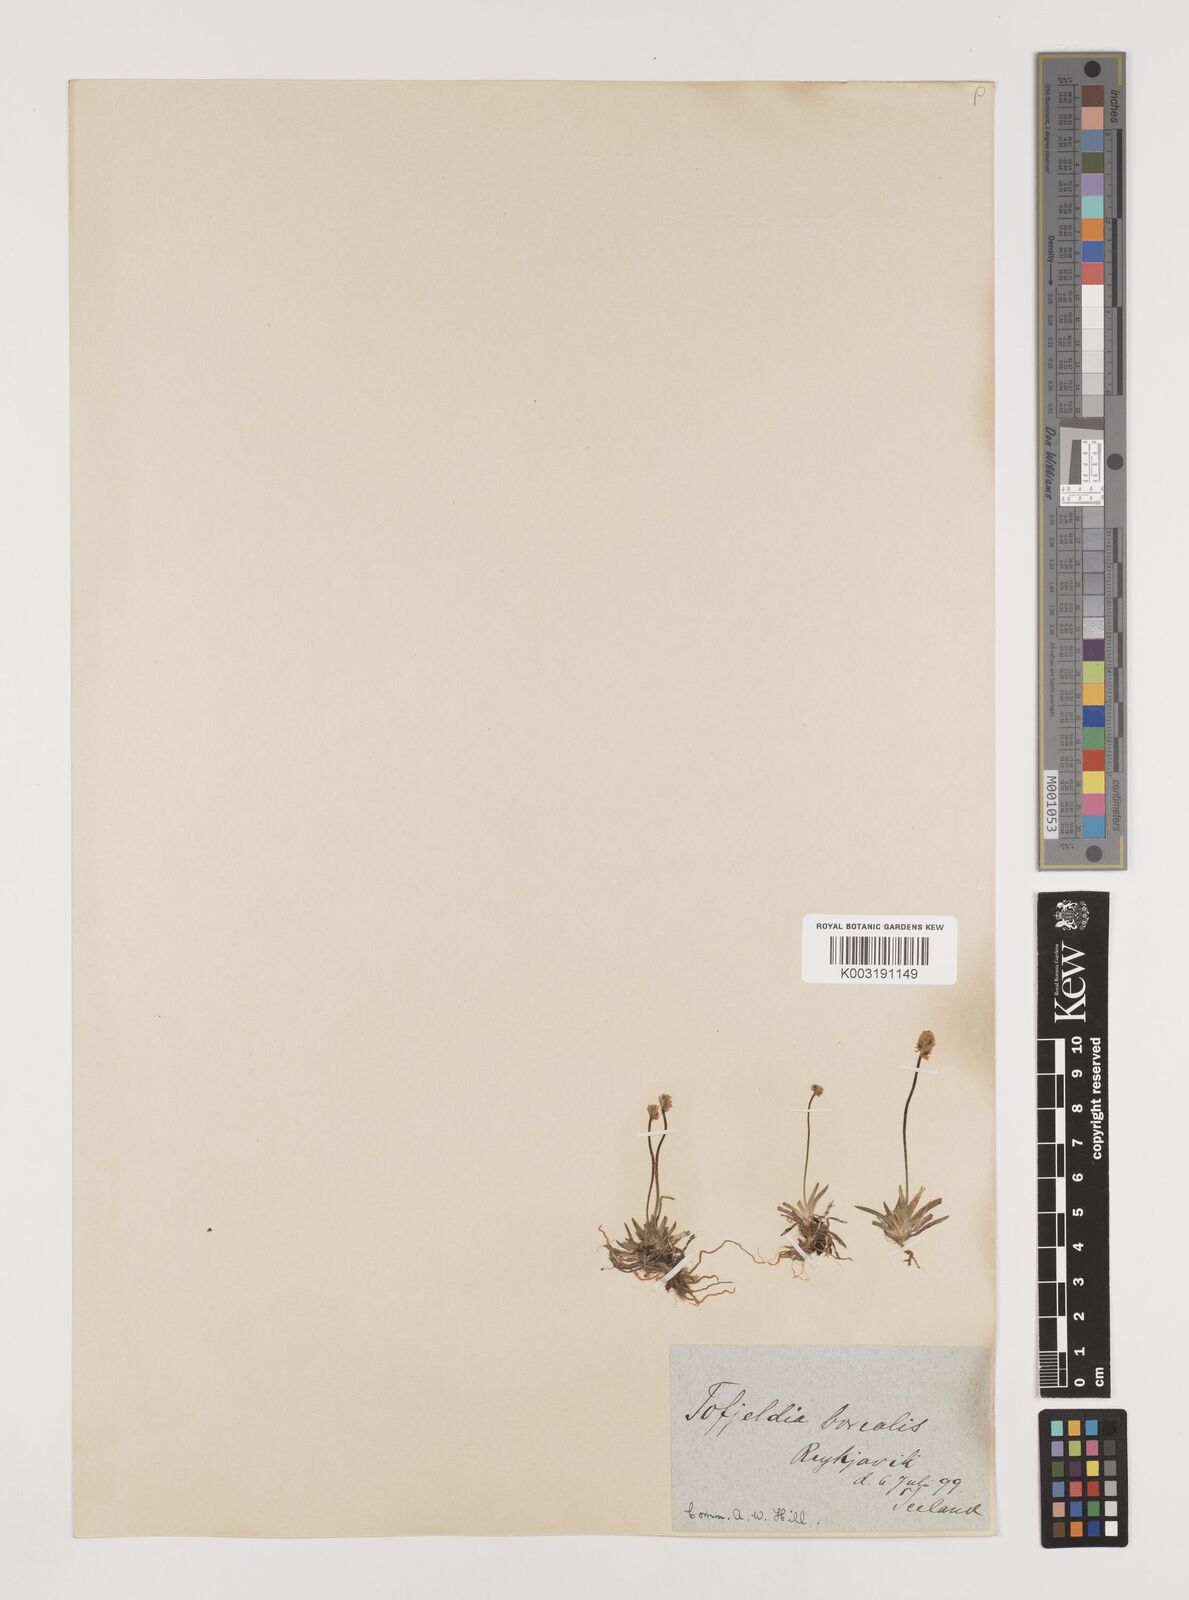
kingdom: Plantae
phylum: Tracheophyta
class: Liliopsida
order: Alismatales
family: Tofieldiaceae
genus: Tofieldia
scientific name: Tofieldia pusilla
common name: Scottish false asphodel
